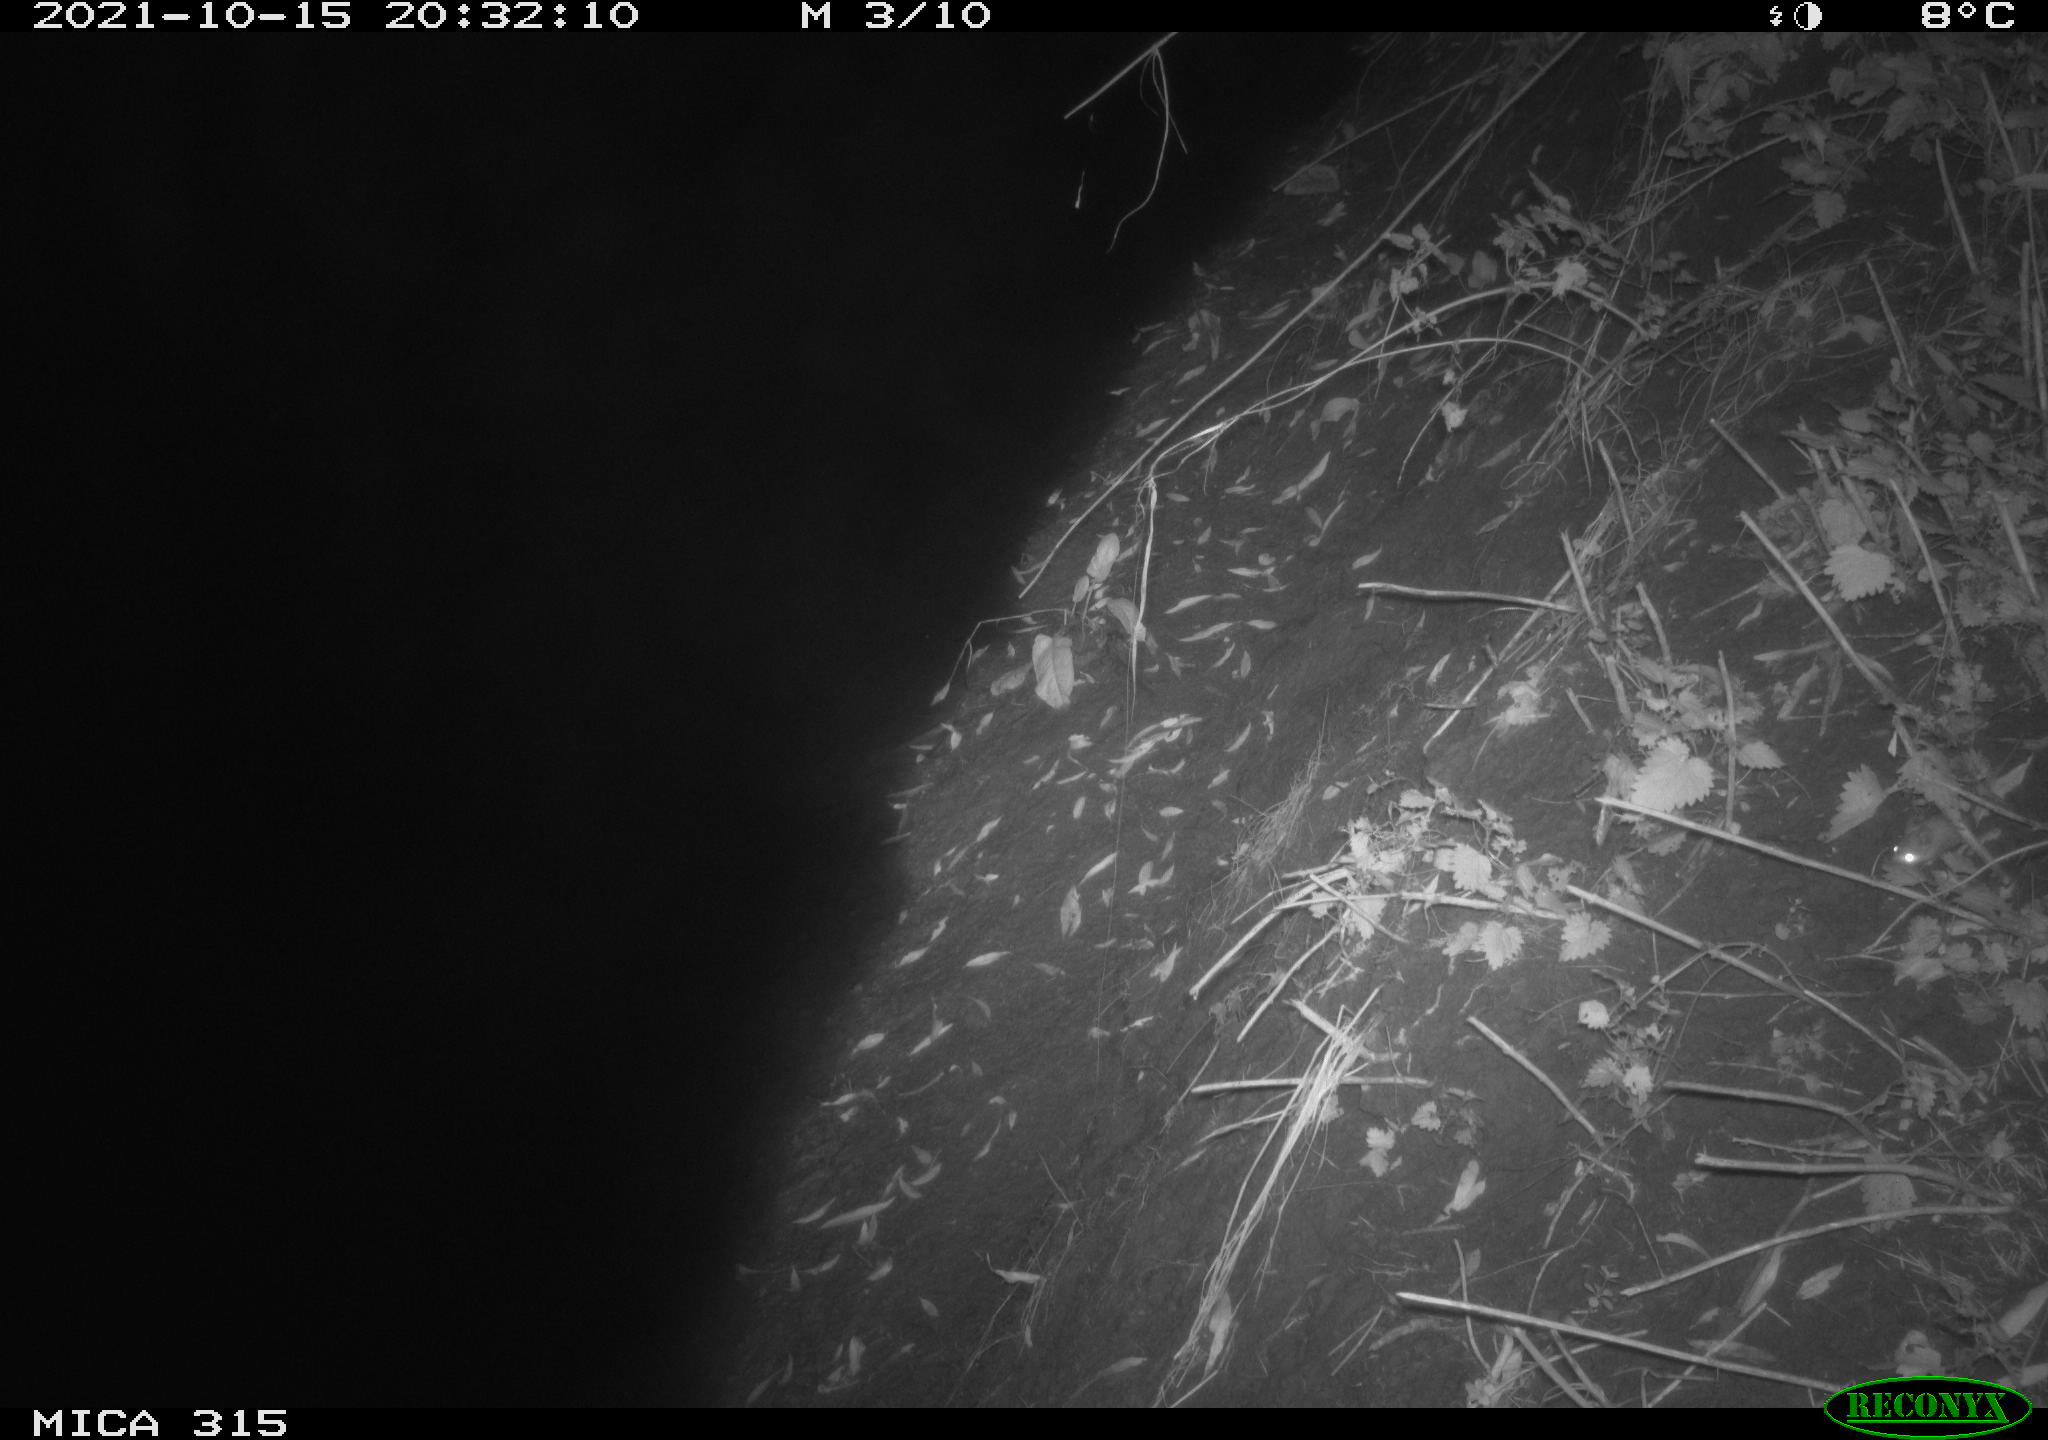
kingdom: Animalia
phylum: Chordata
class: Mammalia
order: Rodentia
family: Cricetidae
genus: Myodes
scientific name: Myodes glareolus
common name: Bank vole
